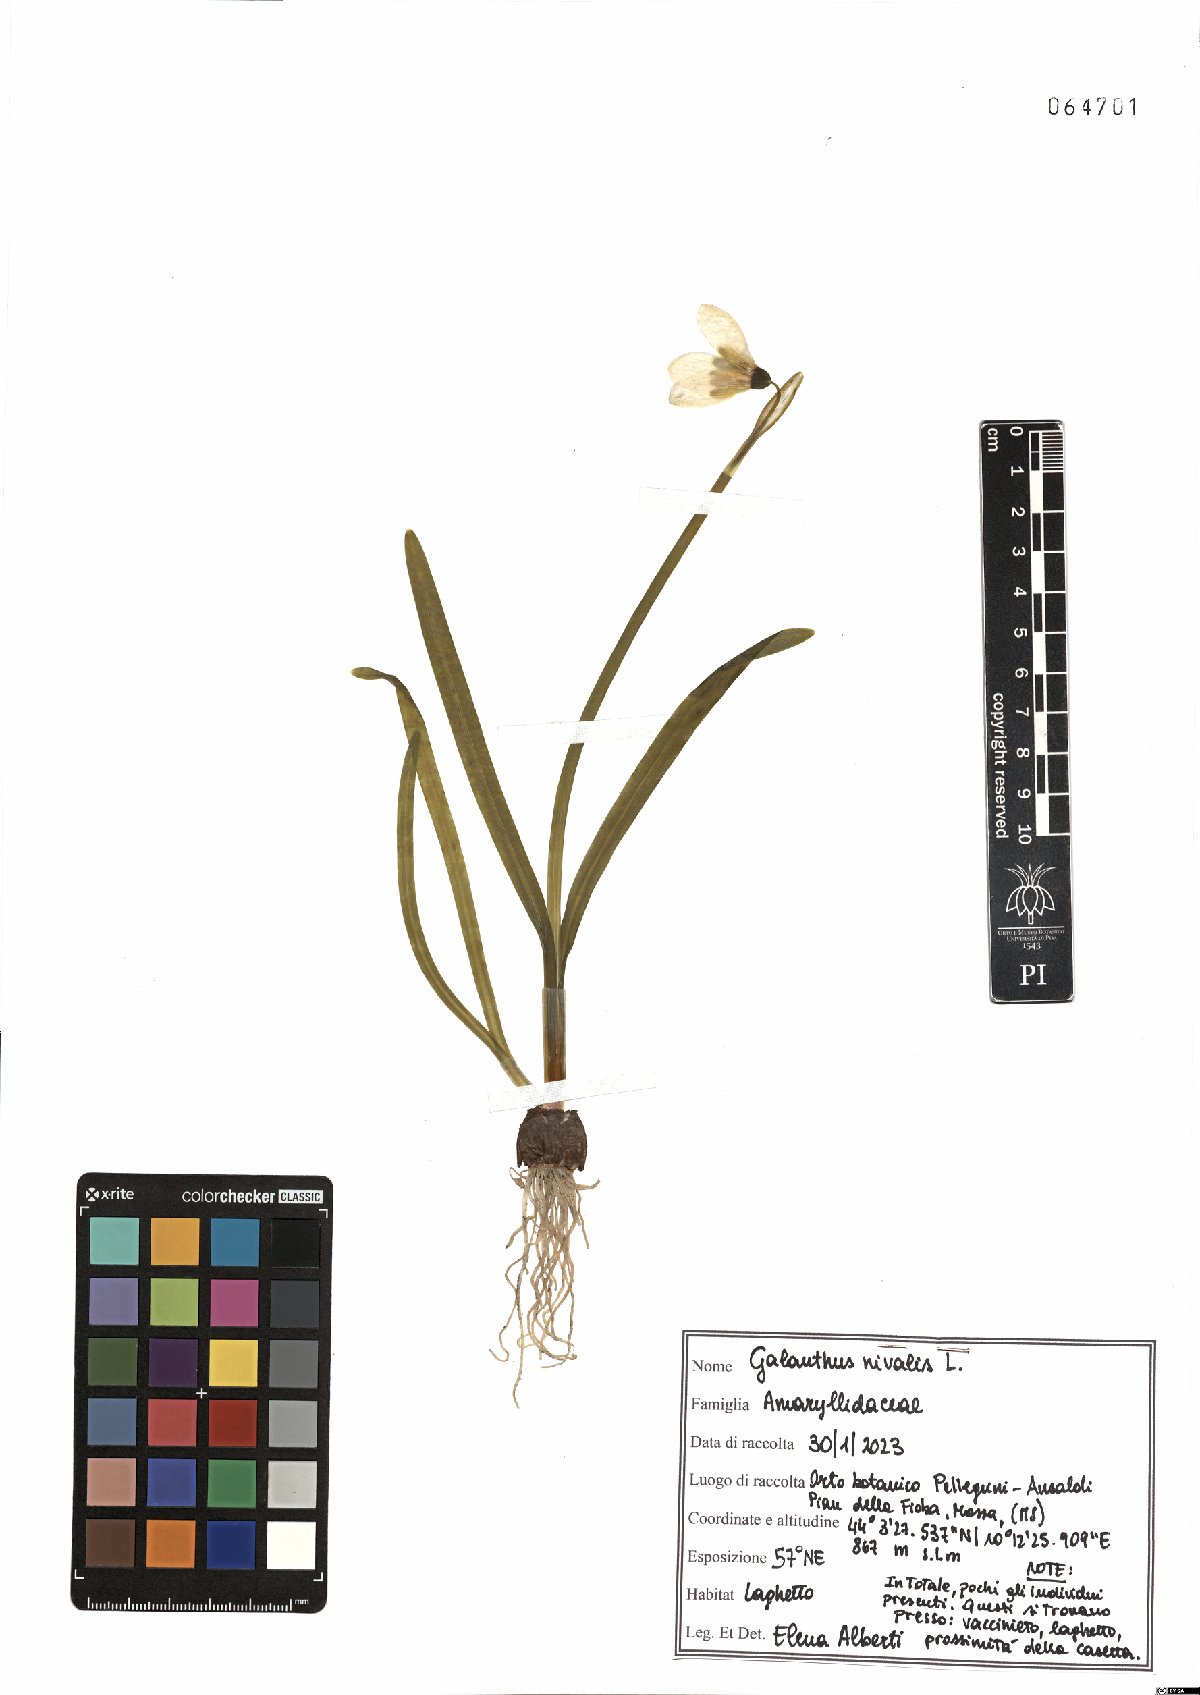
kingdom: Plantae
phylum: Tracheophyta
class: Liliopsida
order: Asparagales
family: Amaryllidaceae
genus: Galanthus
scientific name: Galanthus nivalis
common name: Snowdrop
